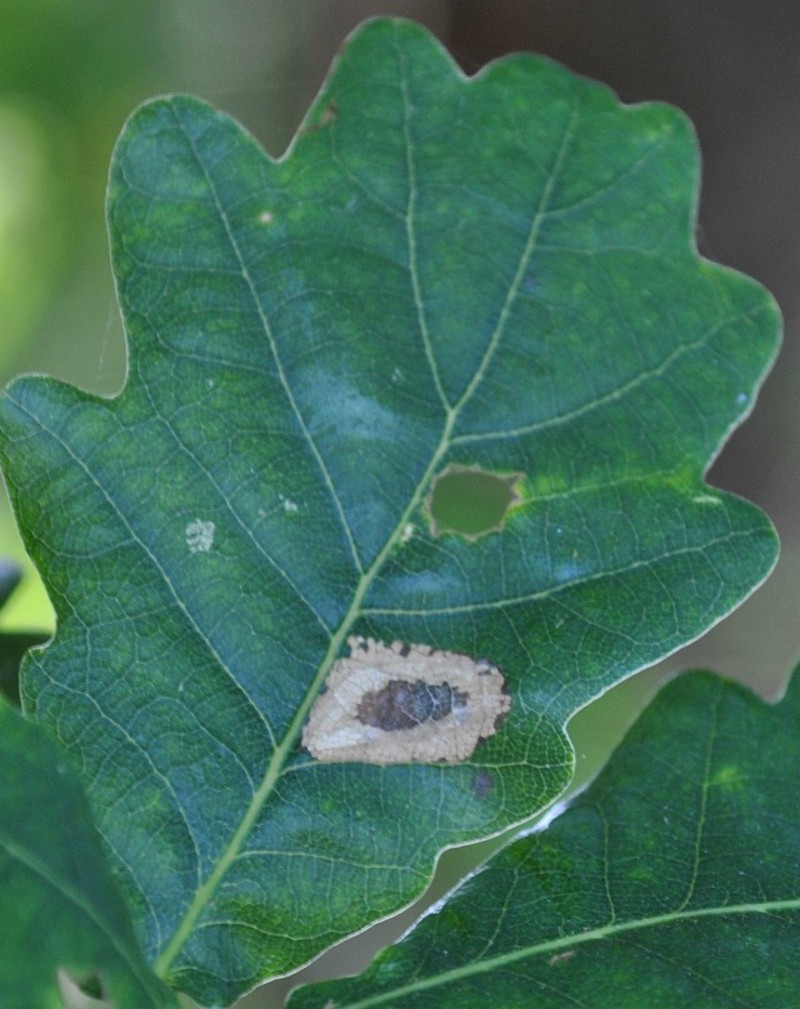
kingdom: Animalia
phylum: Arthropoda
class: Insecta
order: Lepidoptera
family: Gracillariidae
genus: Phyllonorycter
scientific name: Phyllonorycter quercifoliella
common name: Common oak midget
